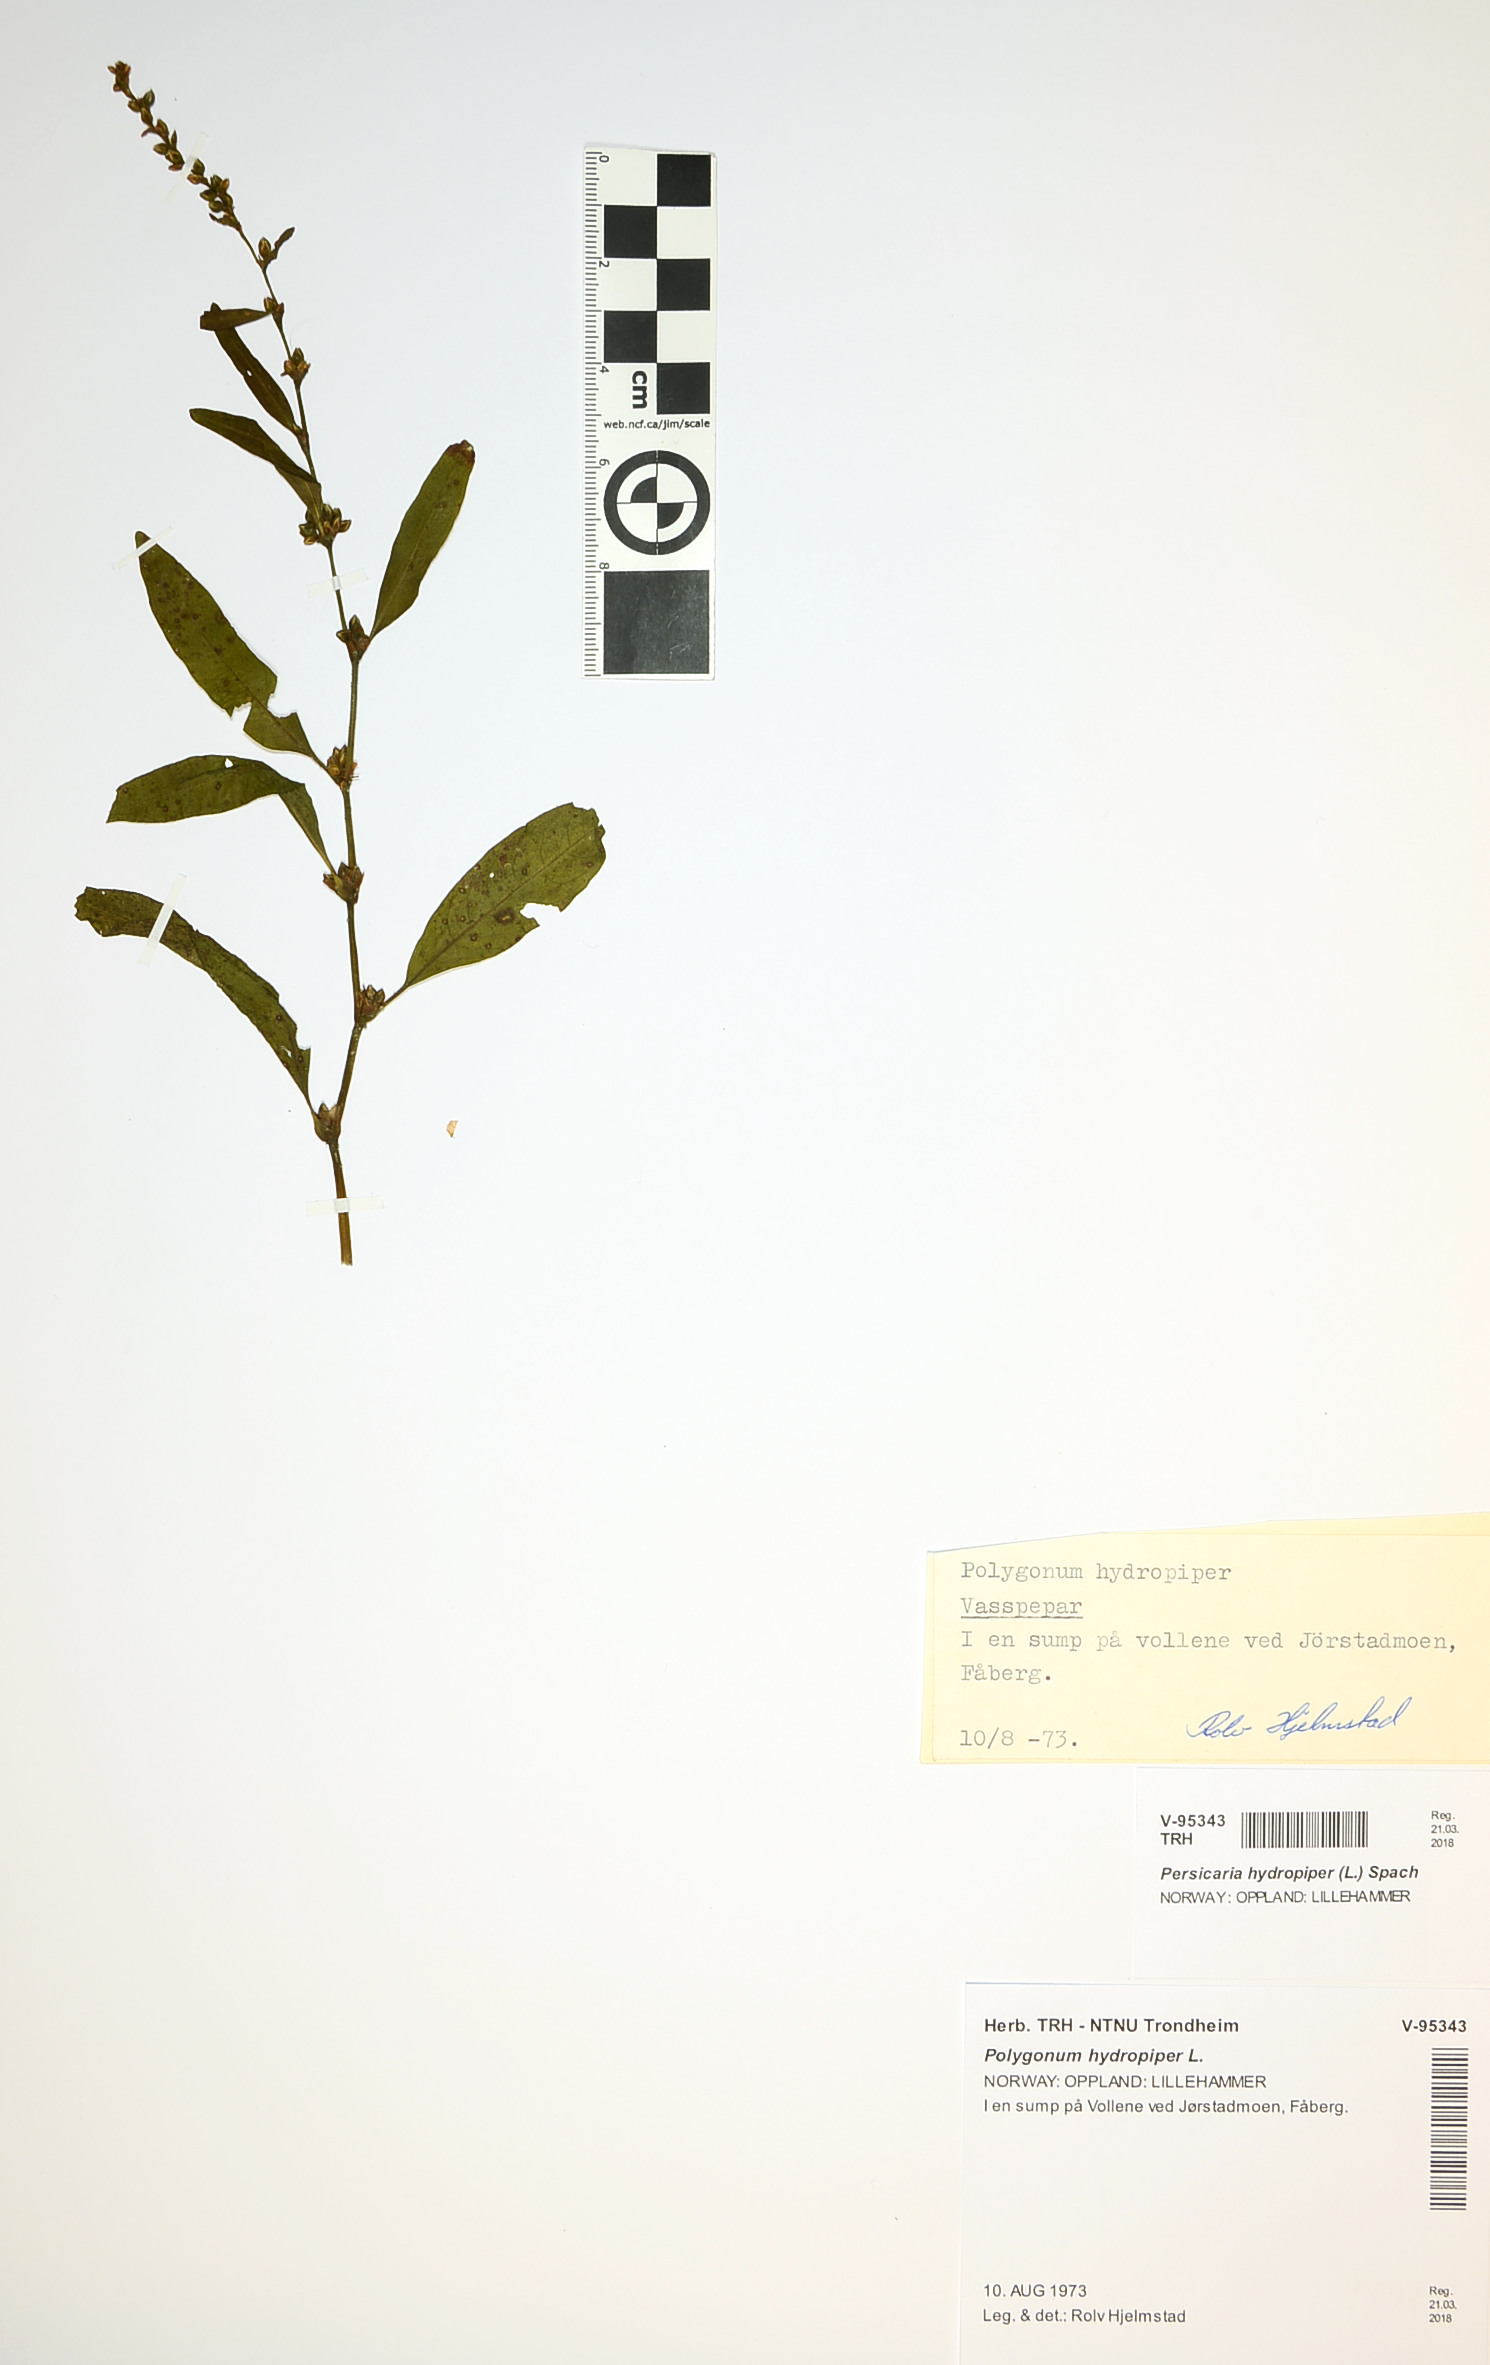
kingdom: Plantae
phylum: Tracheophyta
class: Magnoliopsida
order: Caryophyllales
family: Polygonaceae
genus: Persicaria
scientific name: Persicaria hydropiper
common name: Water-pepper
